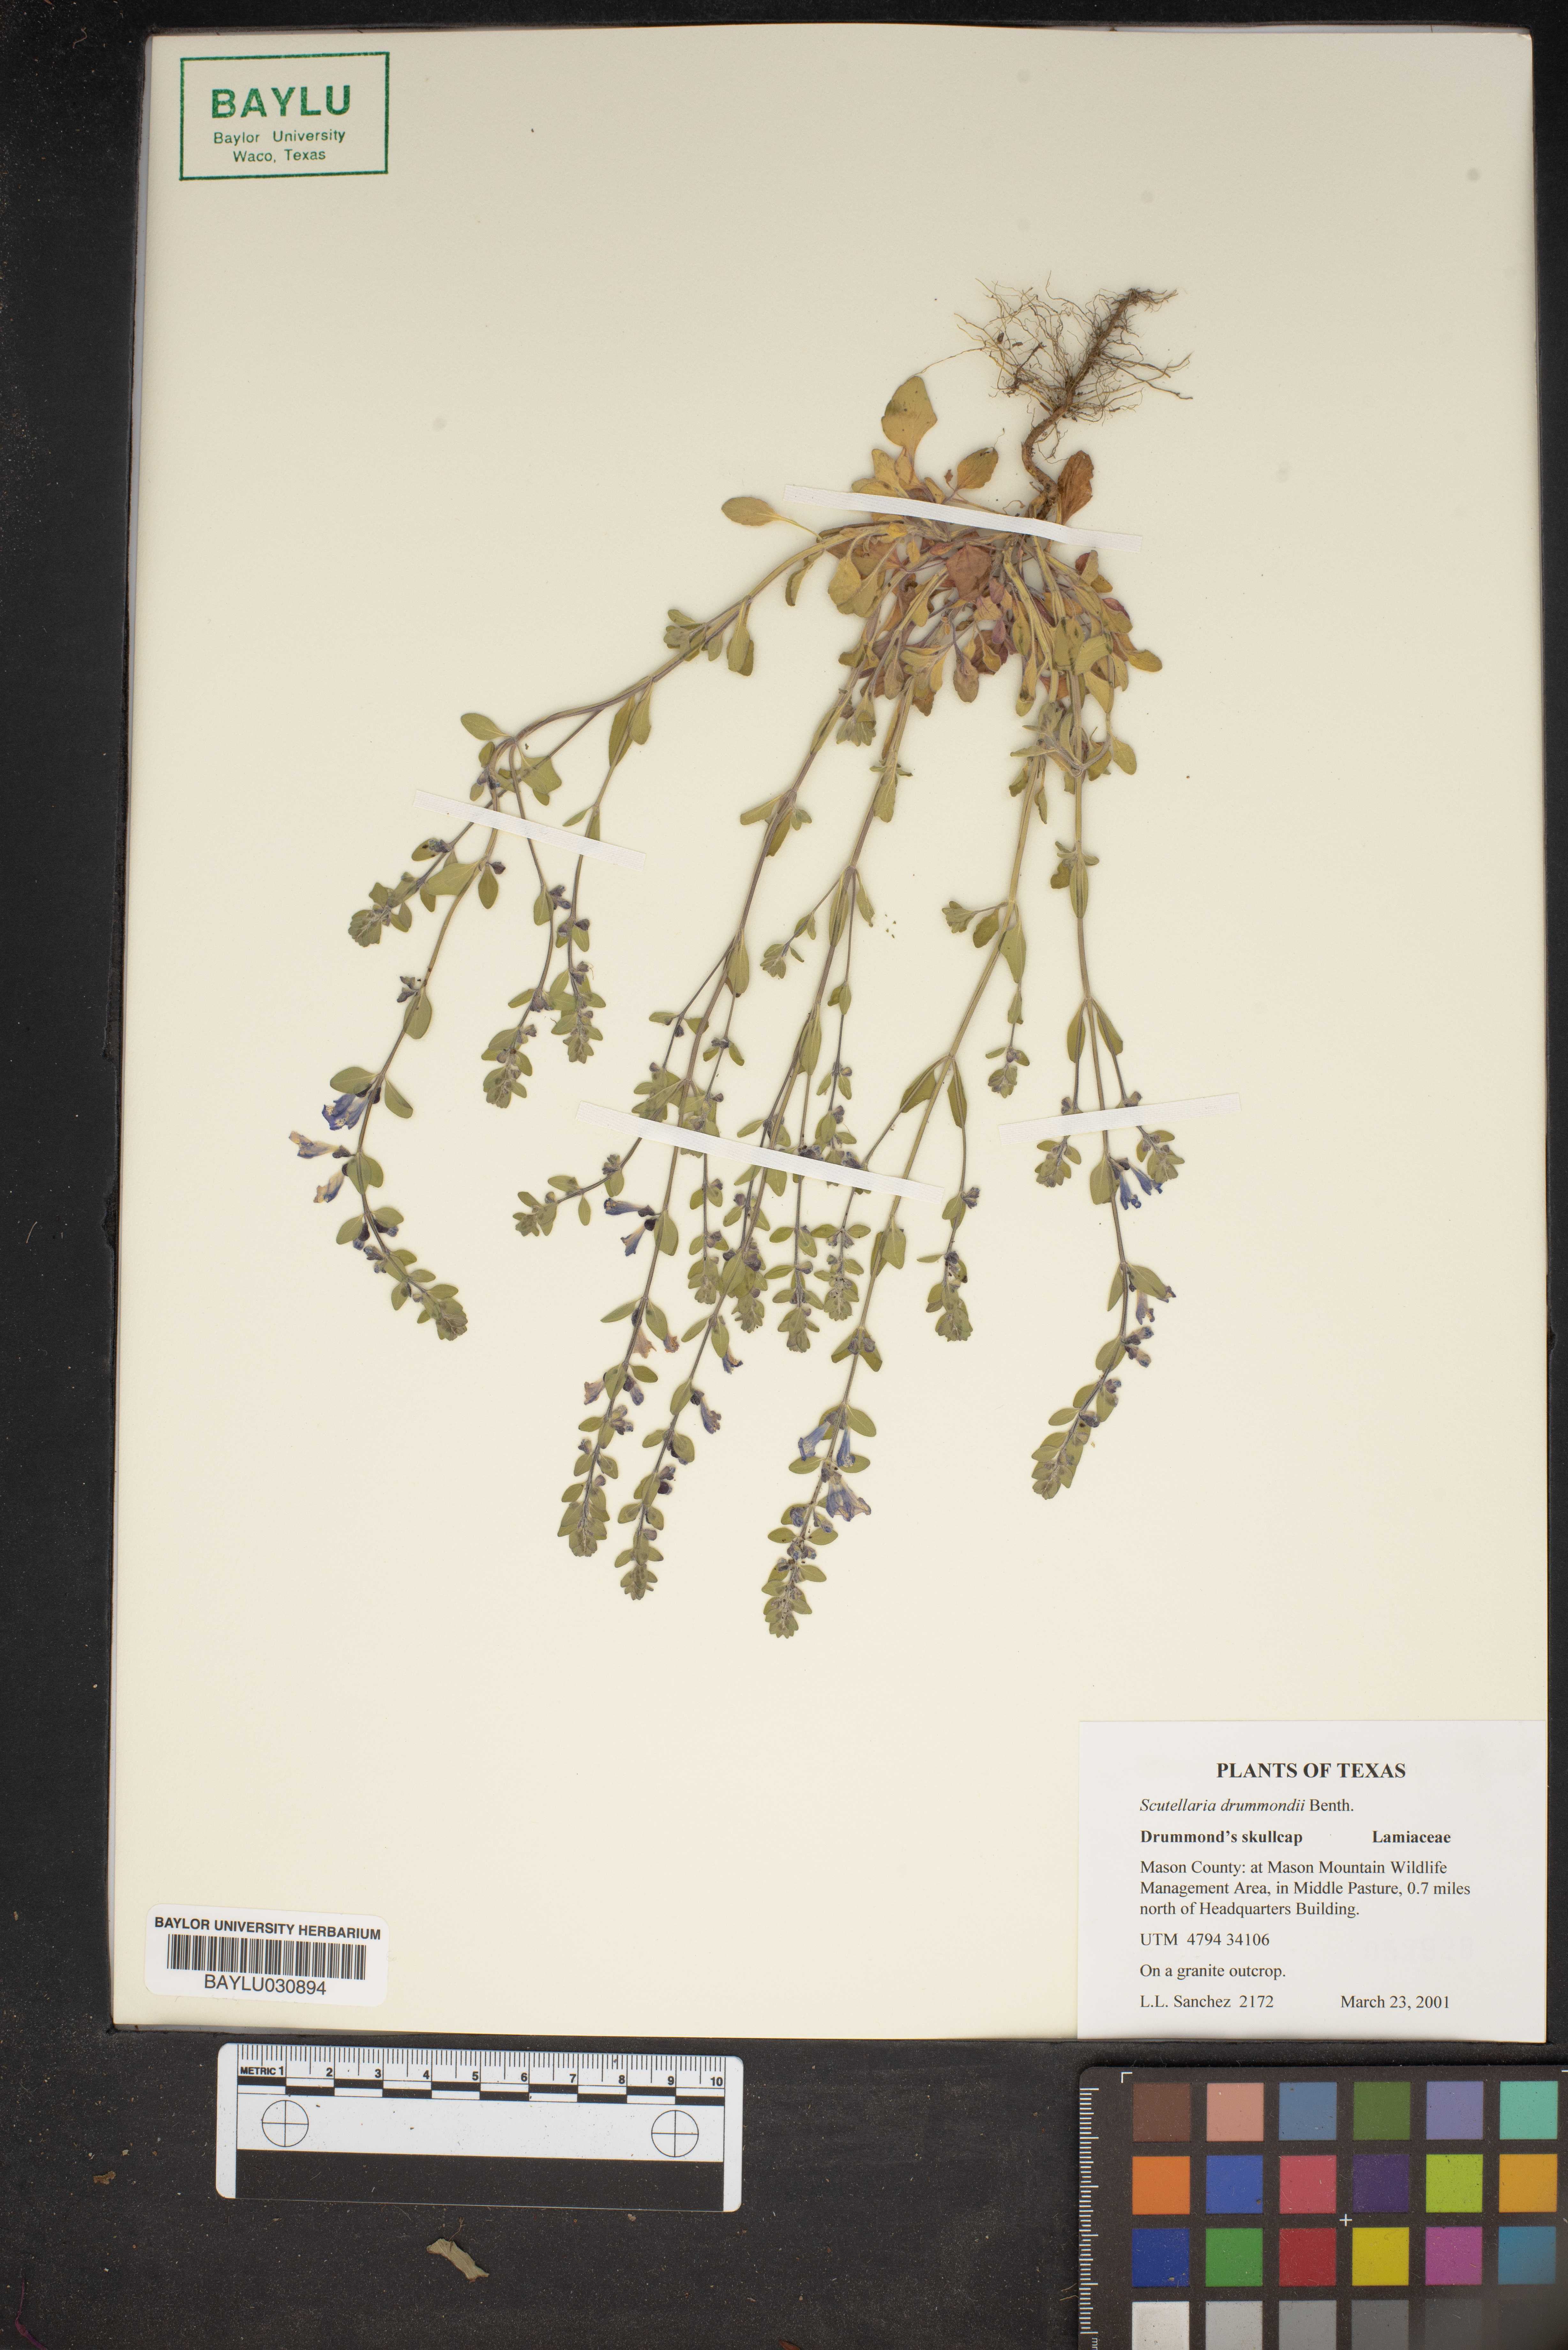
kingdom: Plantae
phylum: Tracheophyta
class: Magnoliopsida
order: Lamiales
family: Lamiaceae
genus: Scutellaria
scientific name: Scutellaria drummondii
